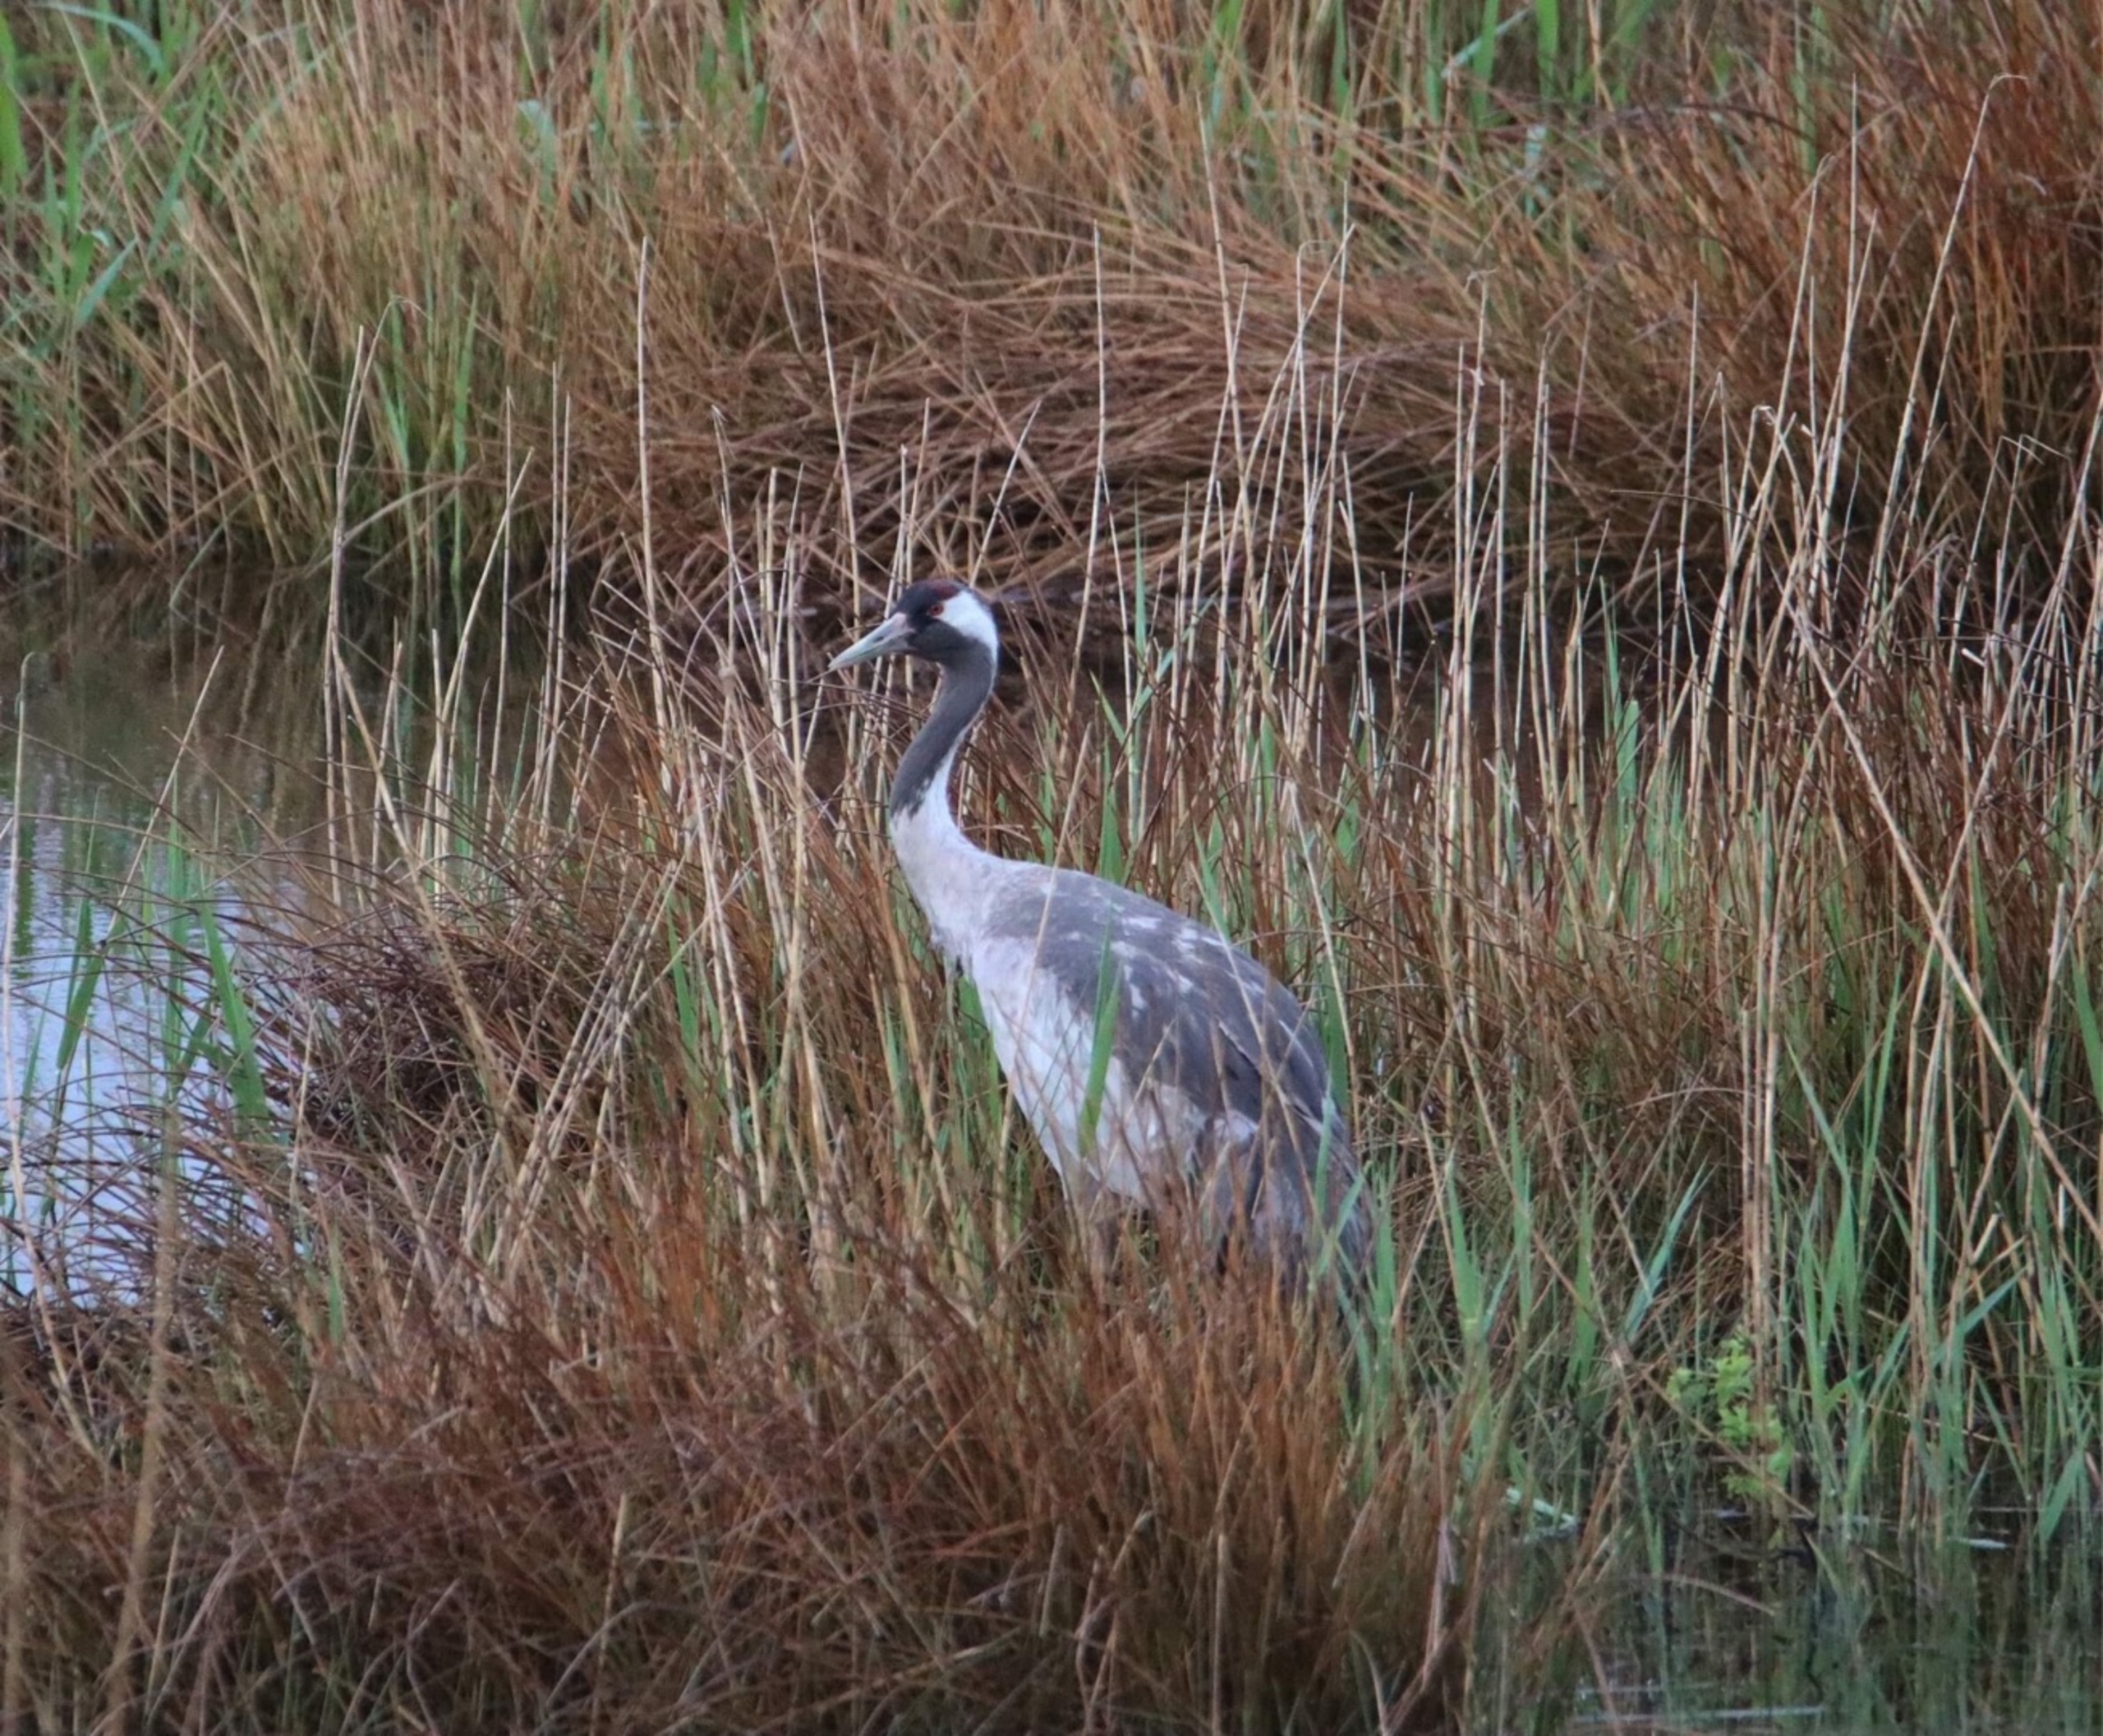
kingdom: Animalia
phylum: Chordata
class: Aves
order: Gruiformes
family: Gruidae
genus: Grus
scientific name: Grus grus
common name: Trane
